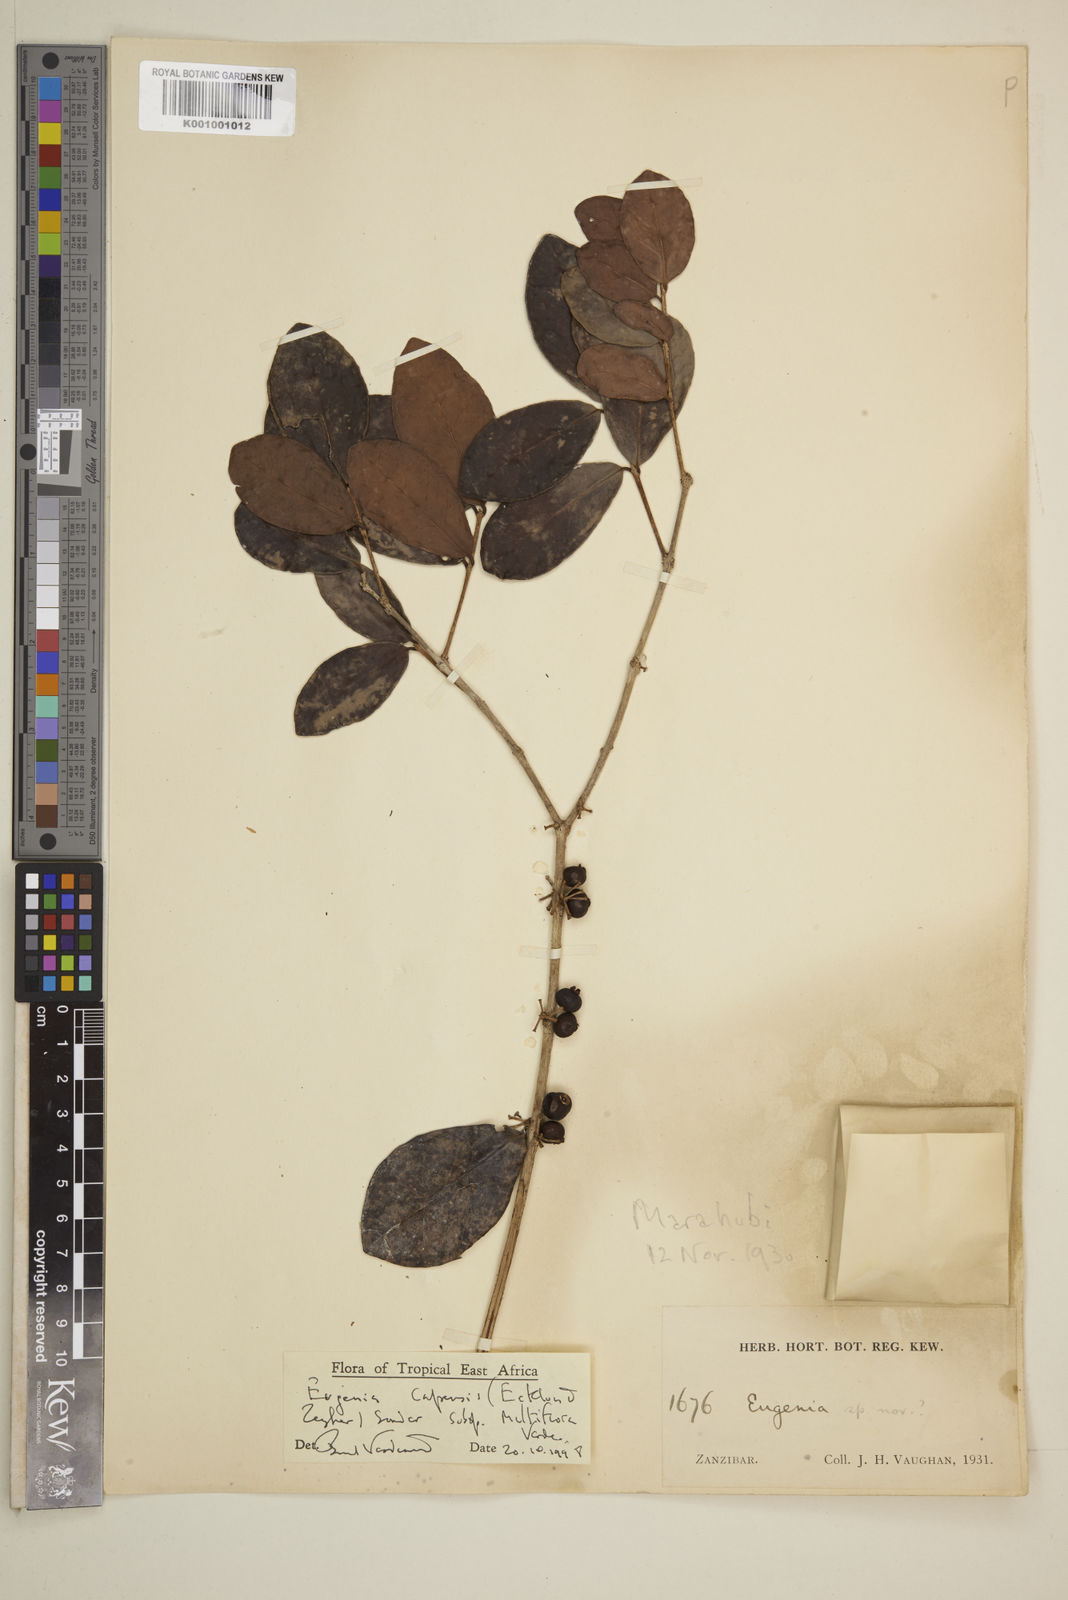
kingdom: Plantae
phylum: Tracheophyta
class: Magnoliopsida
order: Myrtales
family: Myrtaceae
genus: Eugenia
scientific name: Eugenia capensis
